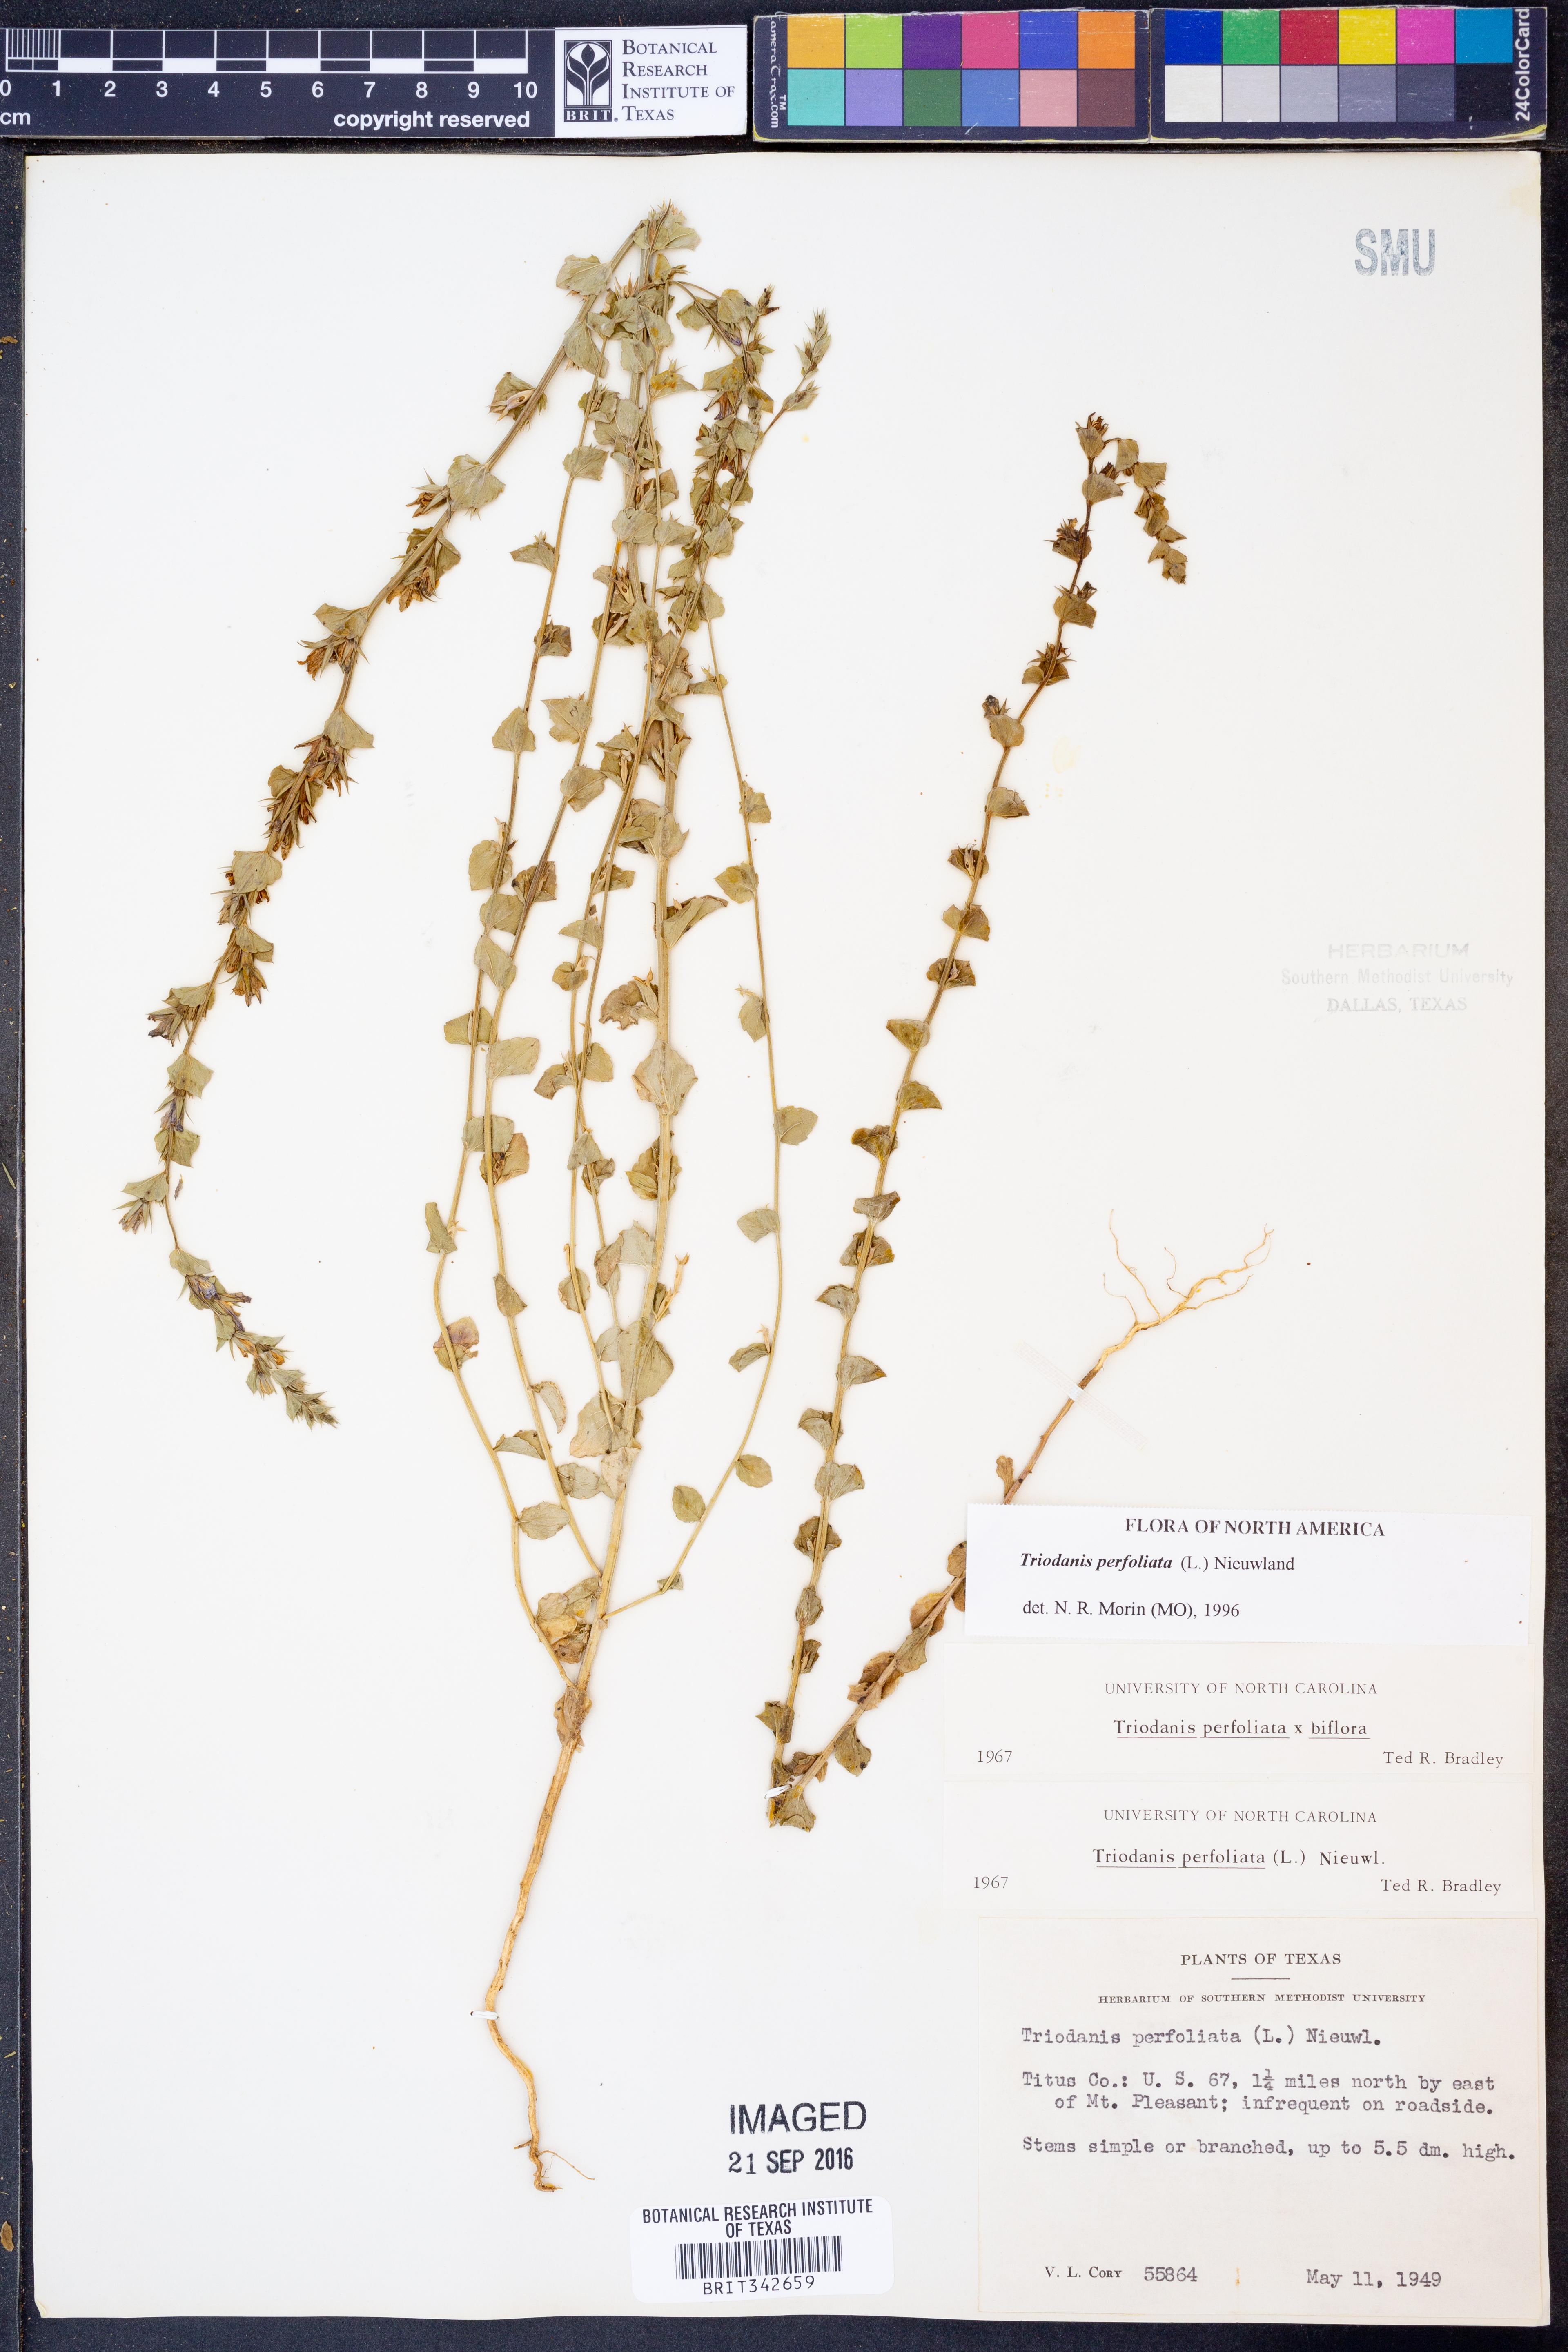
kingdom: Plantae
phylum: Tracheophyta
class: Magnoliopsida
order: Asterales
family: Campanulaceae
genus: Triodanis
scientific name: Triodanis perfoliata
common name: Clasping venus' looking-glass
